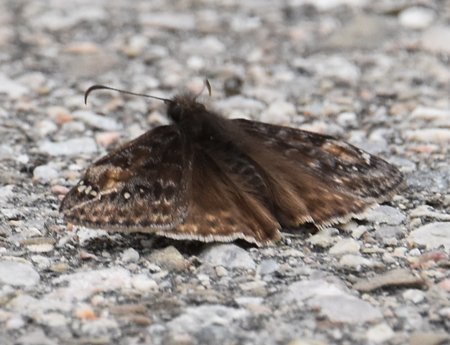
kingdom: Animalia
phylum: Arthropoda
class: Insecta
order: Lepidoptera
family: Hesperiidae
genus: Gesta
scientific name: Gesta
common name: Juvenal's Duskywing
